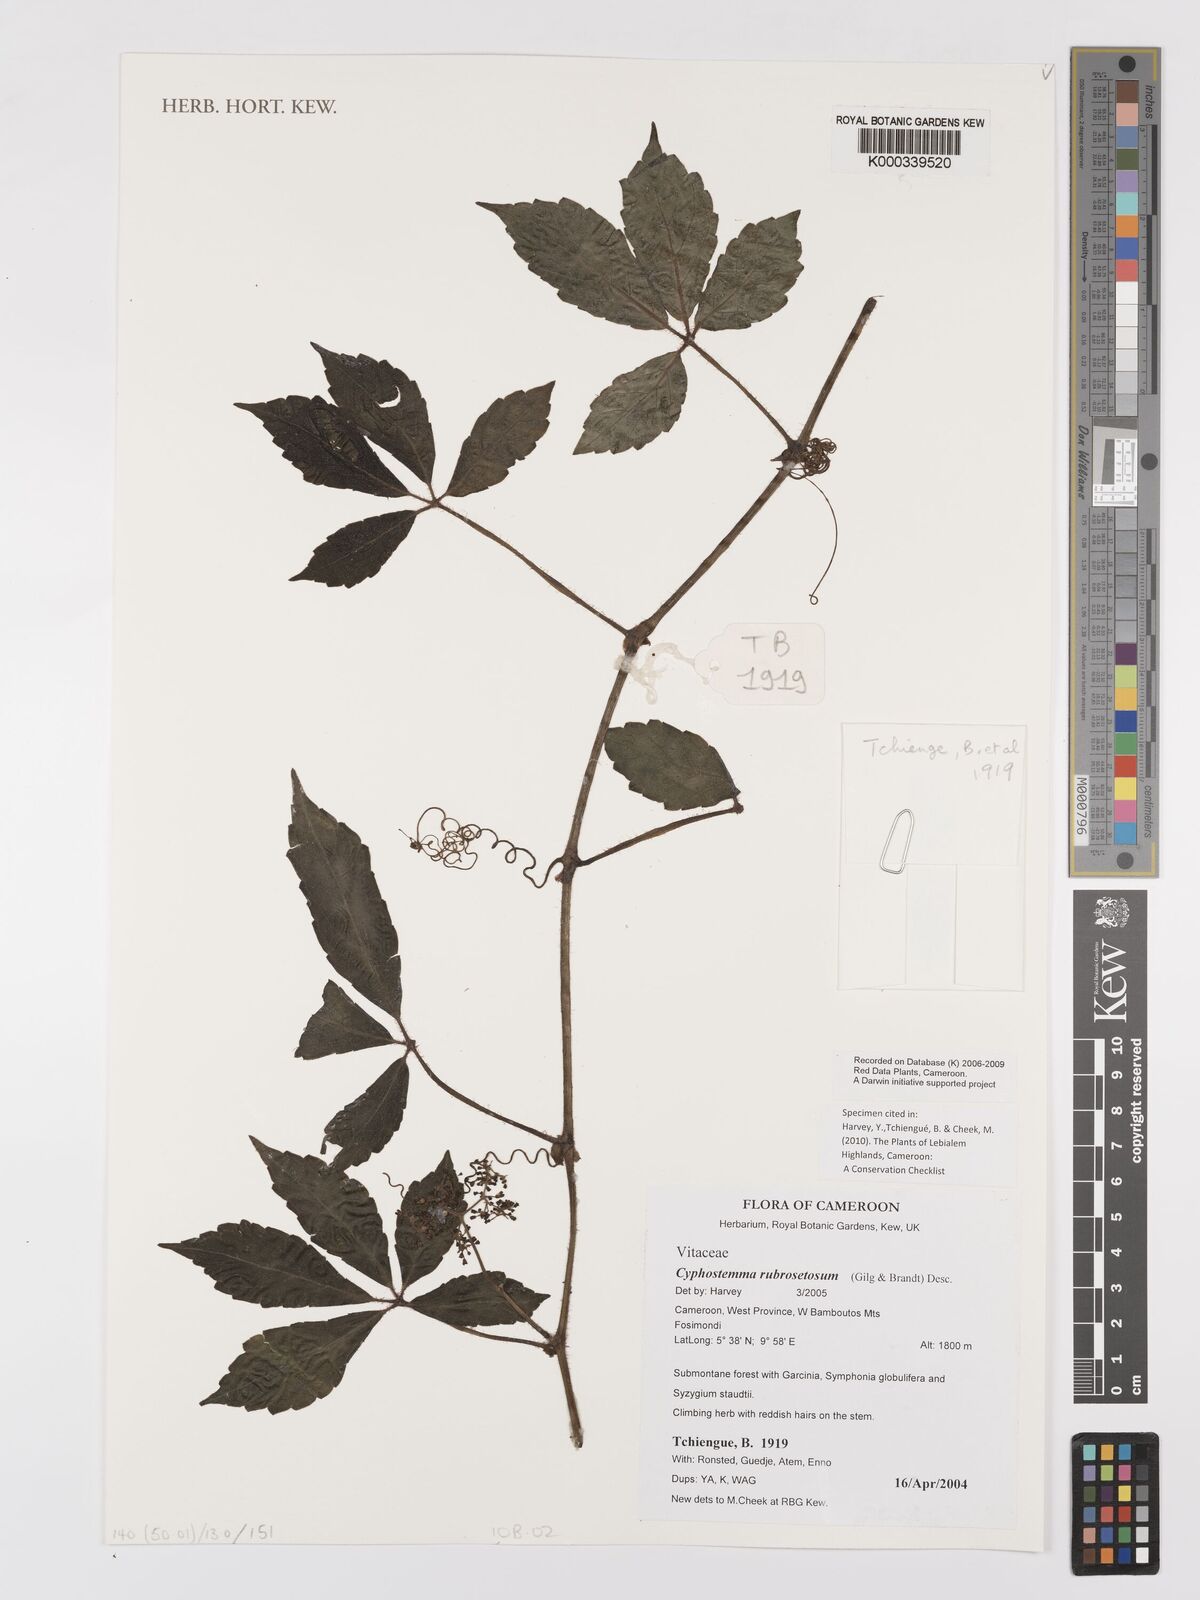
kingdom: Plantae
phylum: Tracheophyta
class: Magnoliopsida
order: Vitales
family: Vitaceae
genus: Cyphostemma
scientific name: Cyphostemma rubrosetosum
